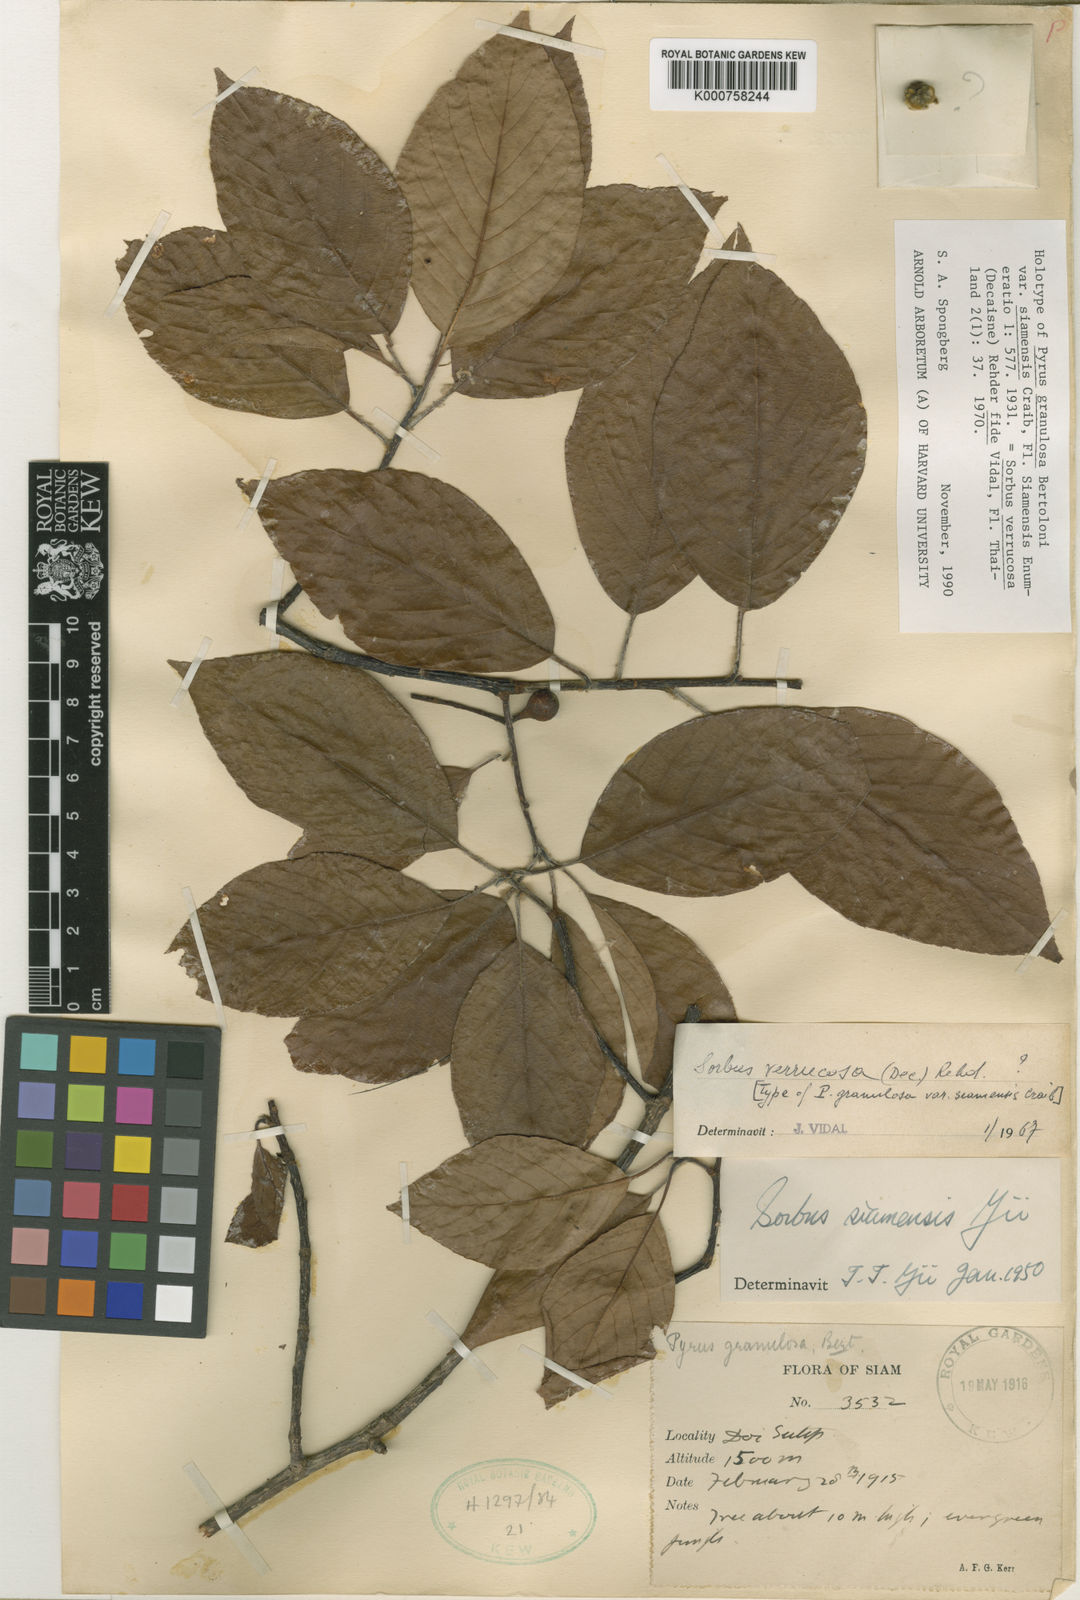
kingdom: Plantae
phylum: Tracheophyta
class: Magnoliopsida
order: Rosales
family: Rosaceae
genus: Micromeles
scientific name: Micromeles cuspidata
